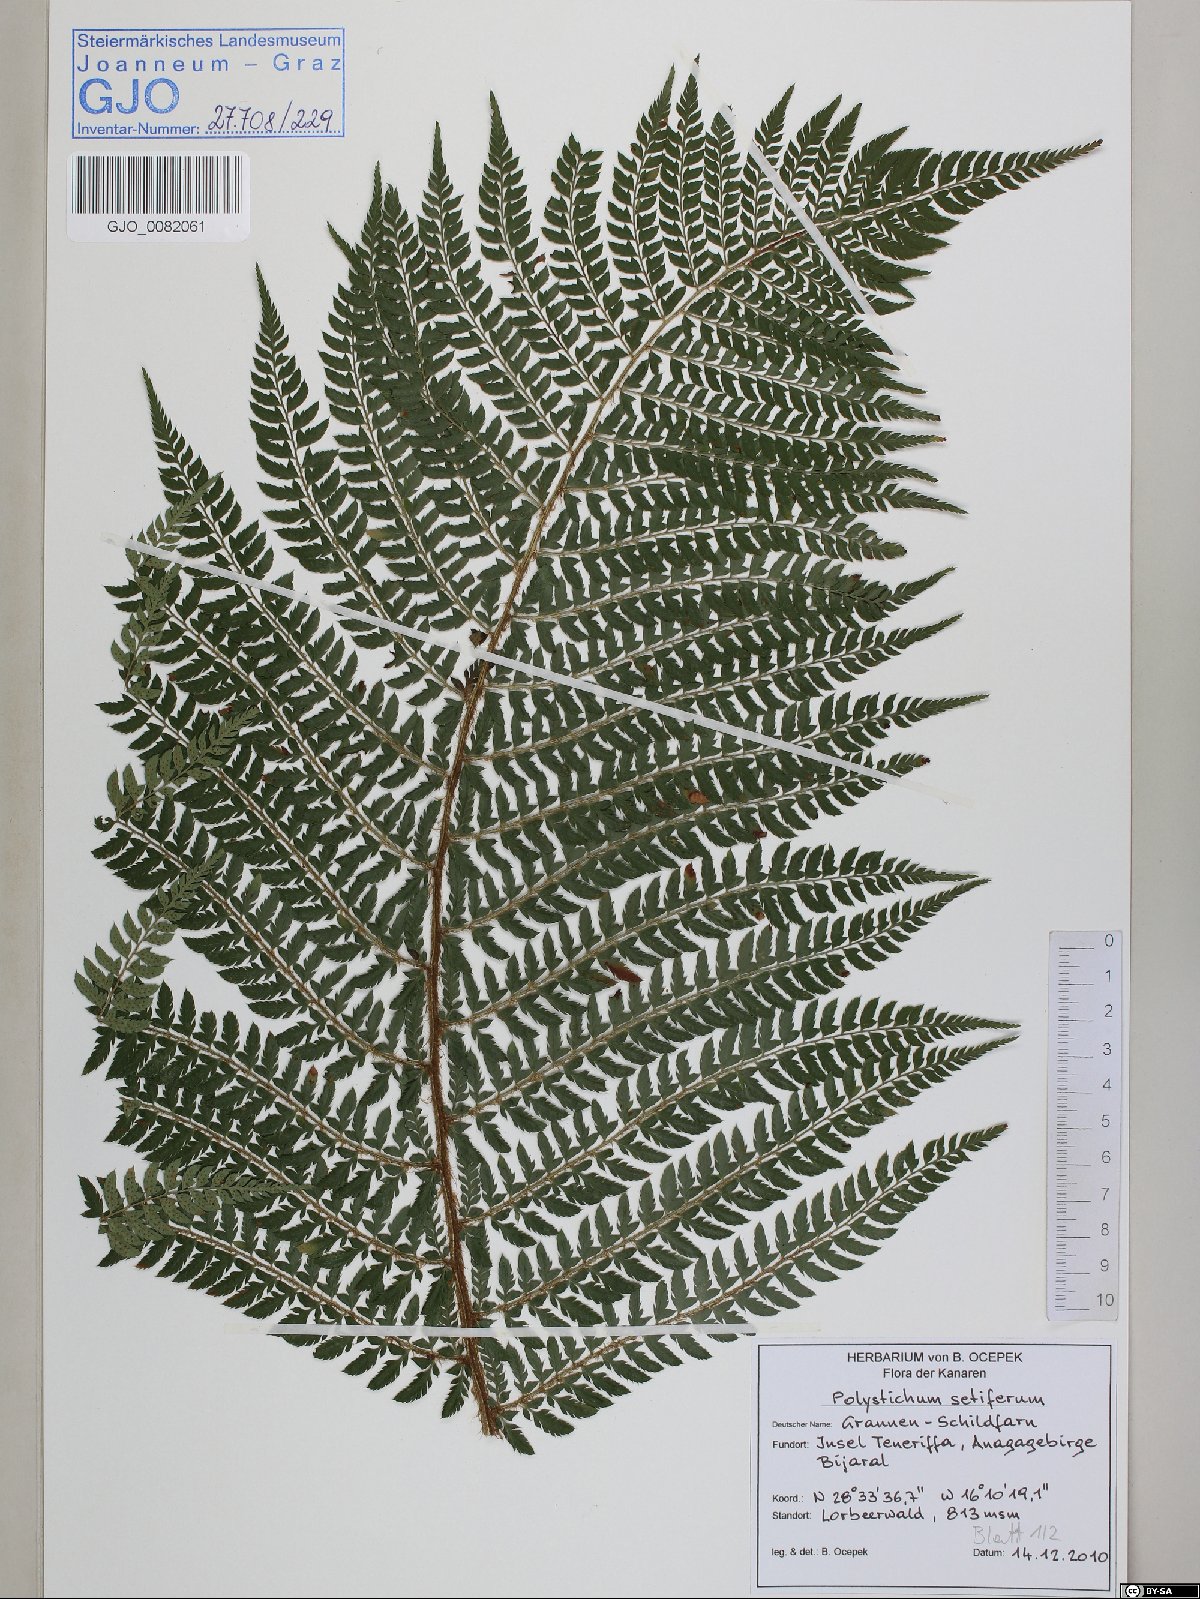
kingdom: Plantae
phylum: Tracheophyta
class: Polypodiopsida
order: Polypodiales
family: Dryopteridaceae
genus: Polystichum
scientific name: Polystichum setiferum
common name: Soft shield-fern
